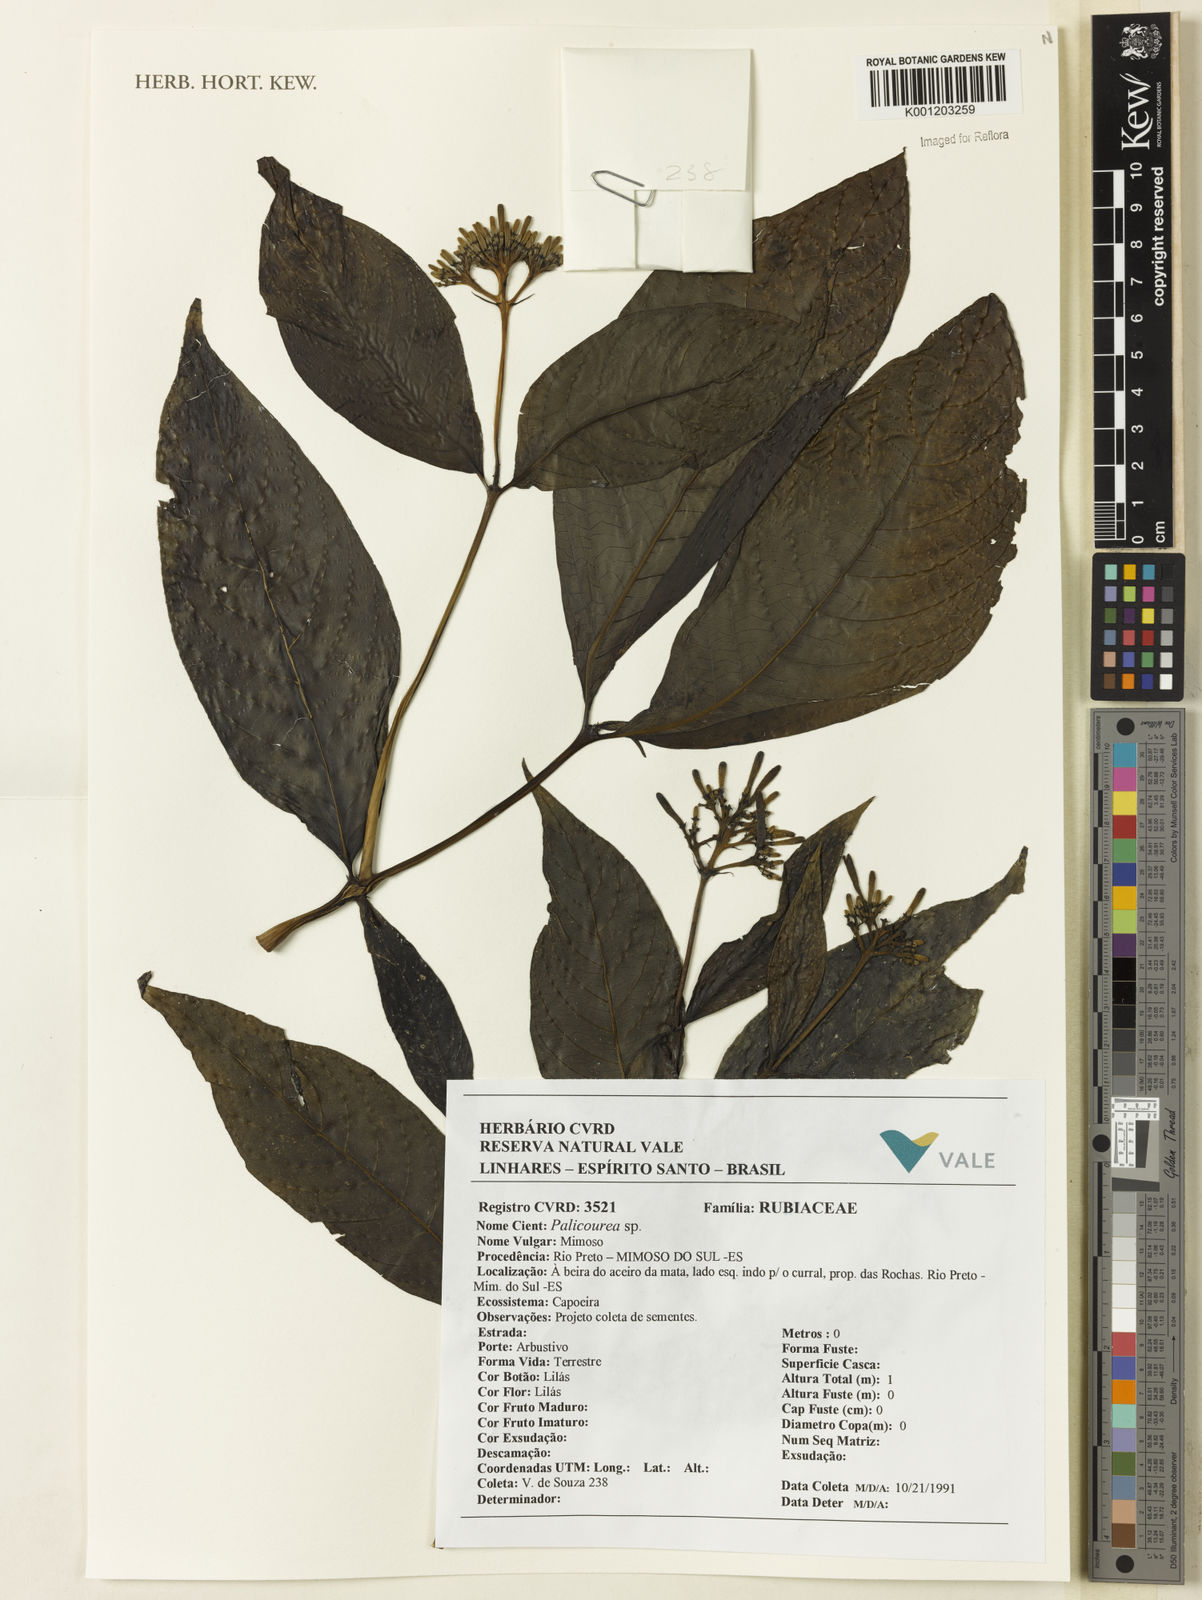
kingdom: Plantae
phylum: Tracheophyta
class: Magnoliopsida
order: Gentianales
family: Rubiaceae
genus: Palicourea
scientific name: Palicourea
